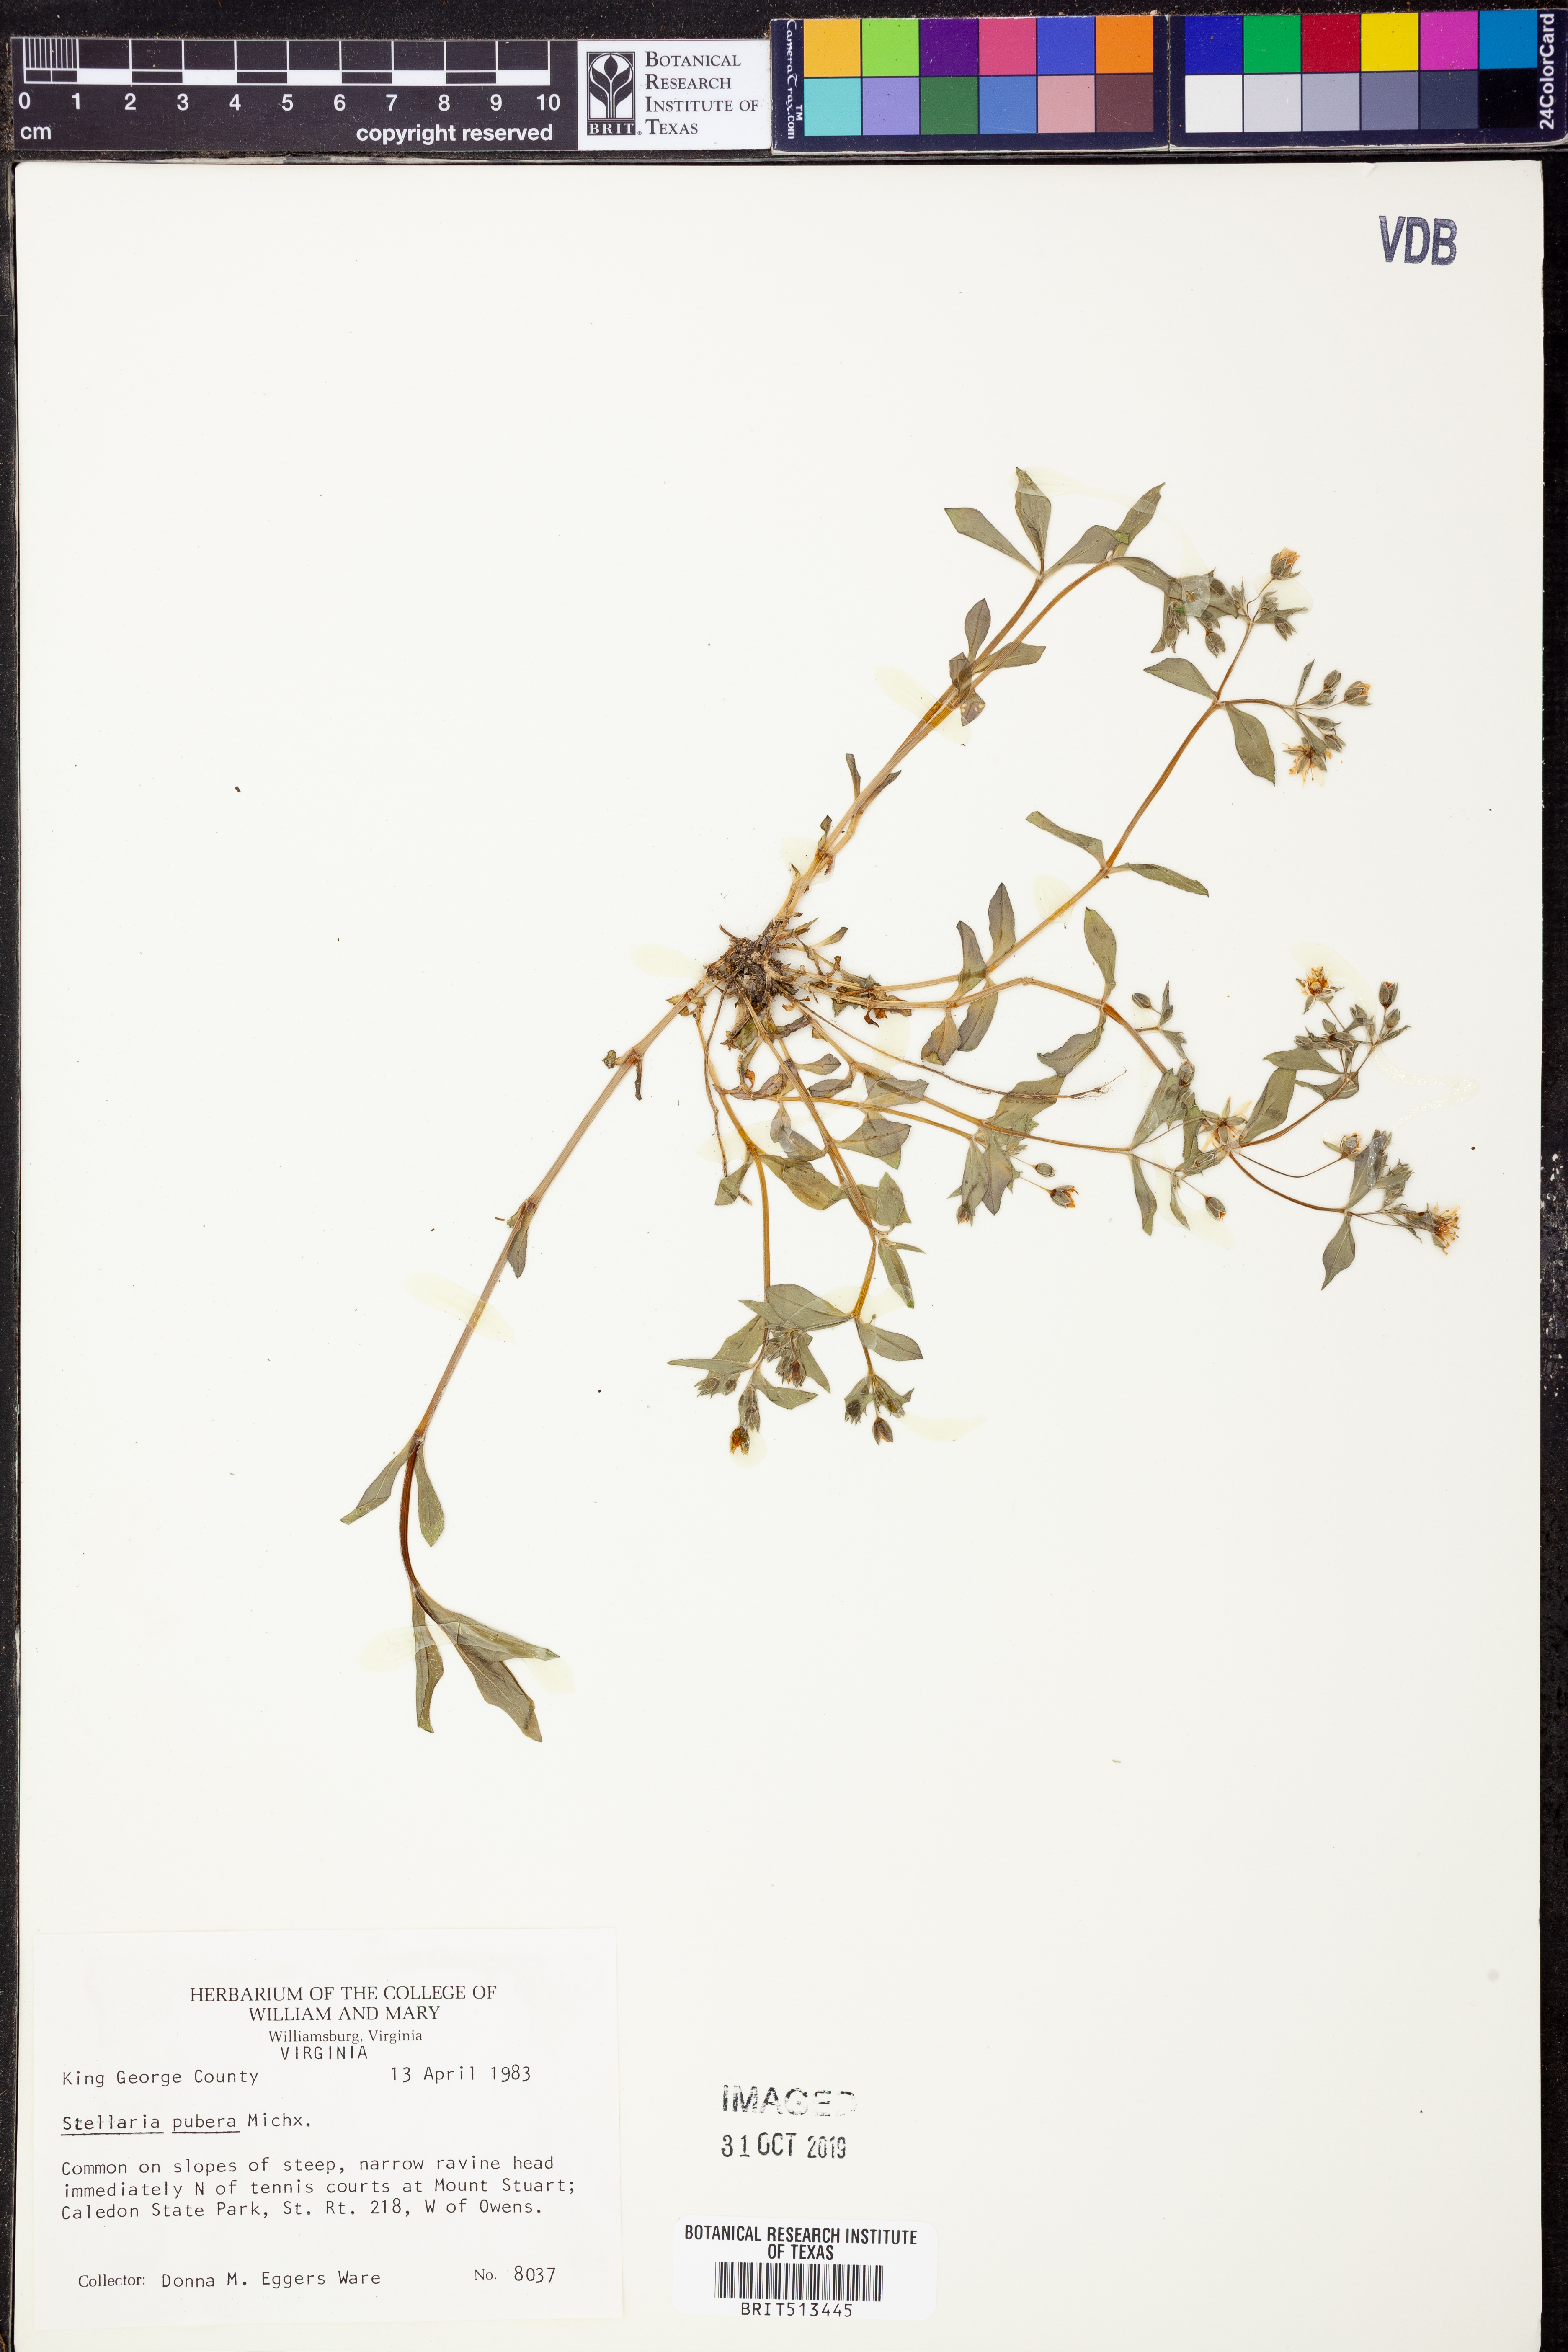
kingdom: Plantae
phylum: Tracheophyta
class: Magnoliopsida
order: Caryophyllales
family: Caryophyllaceae
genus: Stellaria
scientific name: Stellaria pubera
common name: Star chickweed
